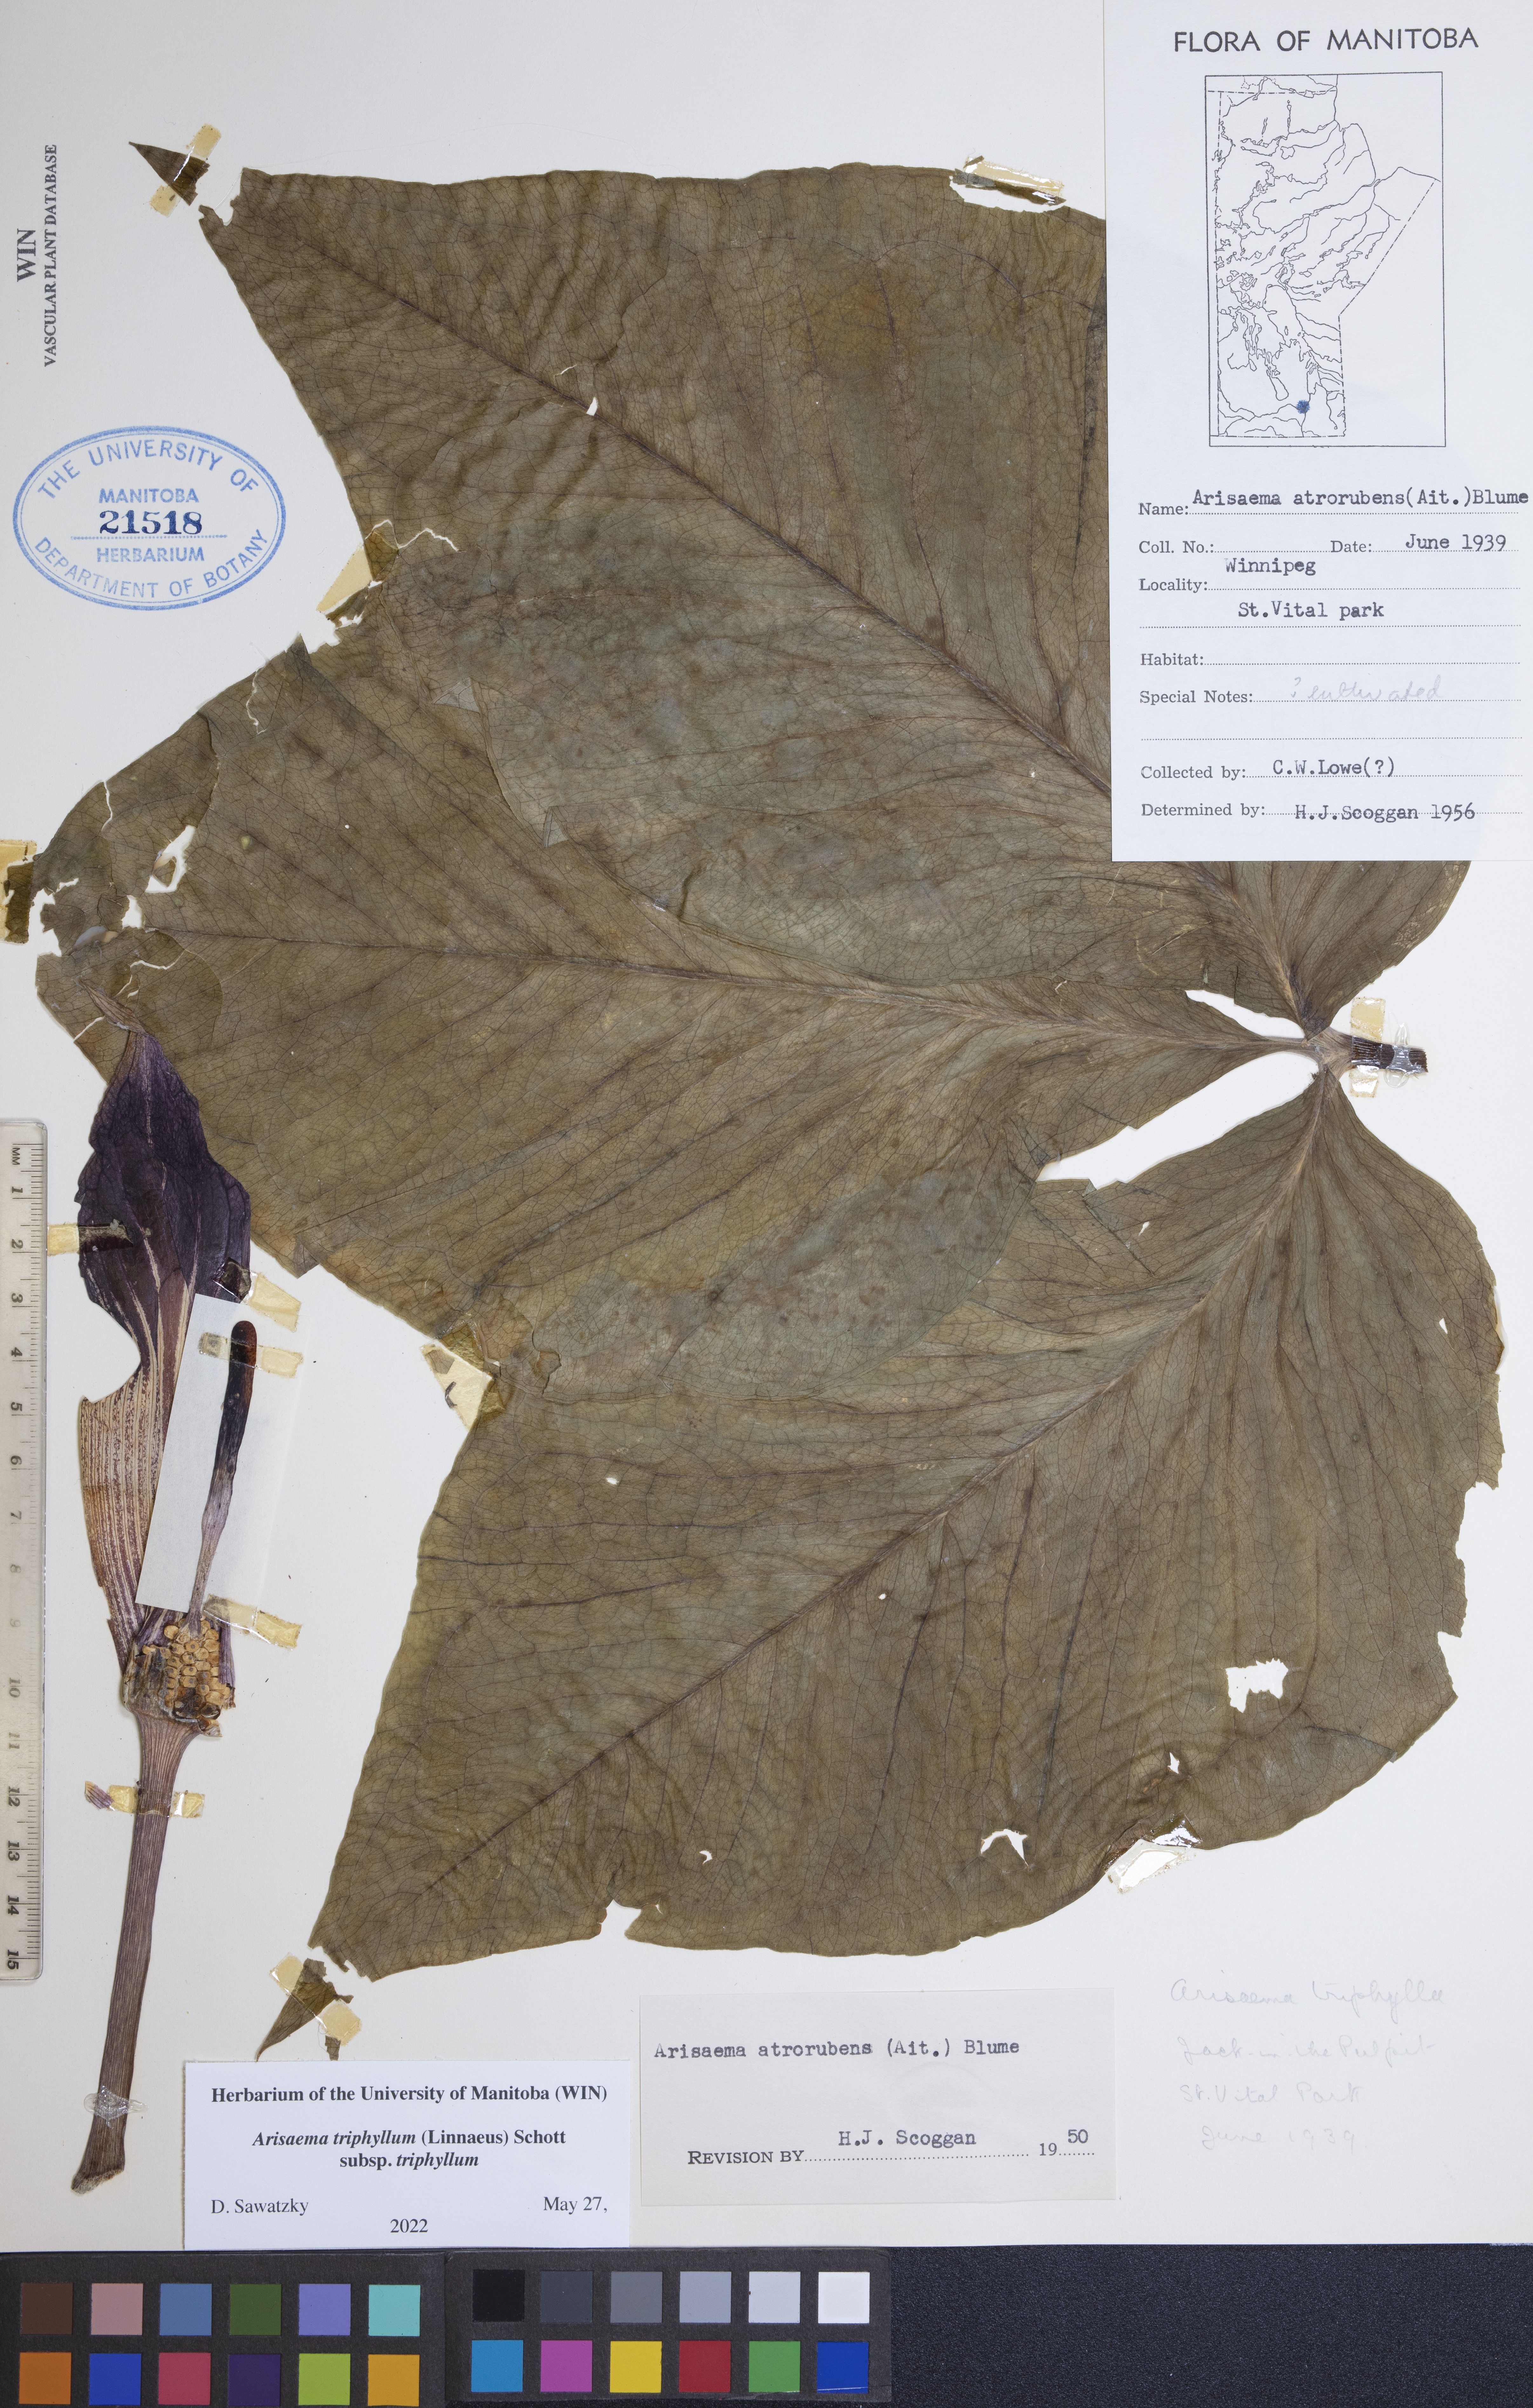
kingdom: Plantae
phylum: Tracheophyta
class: Liliopsida
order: Alismatales
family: Araceae
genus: Arisaema
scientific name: Arisaema triphyllum
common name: Jack-in-the-pulpit
